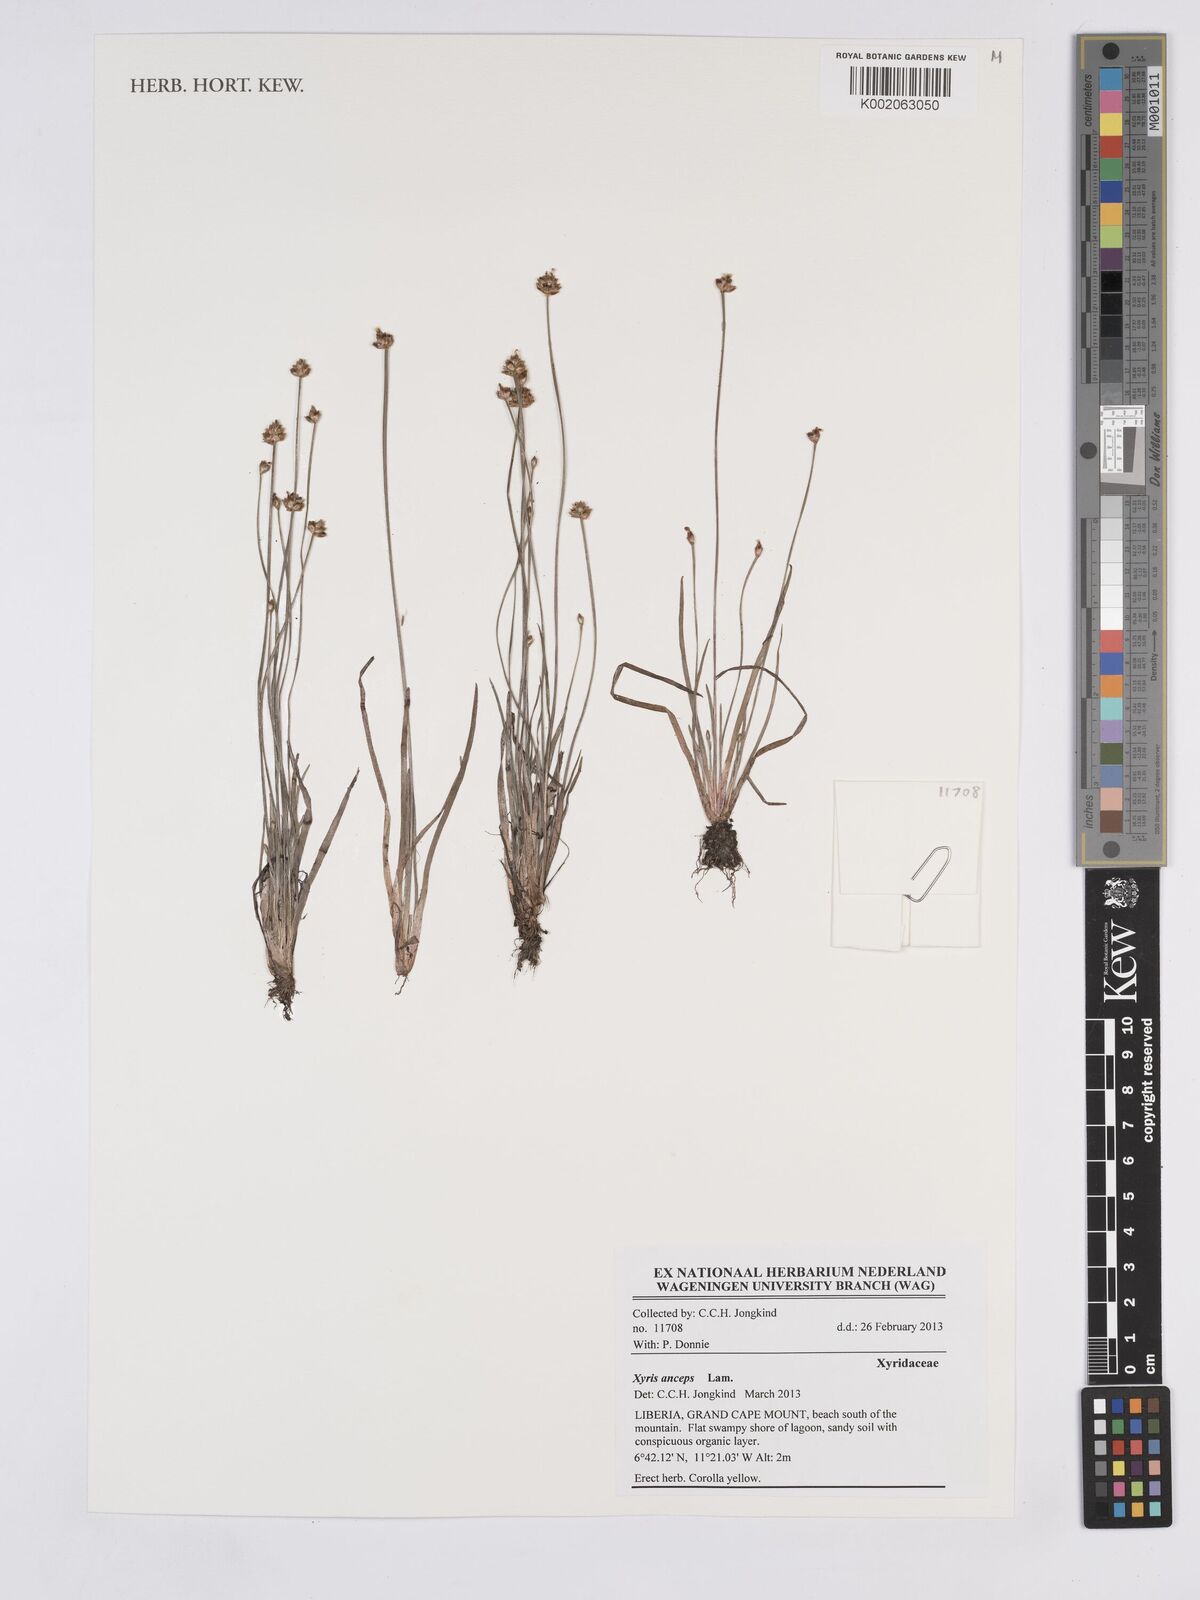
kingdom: Plantae
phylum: Tracheophyta
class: Liliopsida
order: Poales
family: Xyridaceae
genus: Xyris
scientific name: Xyris anceps
